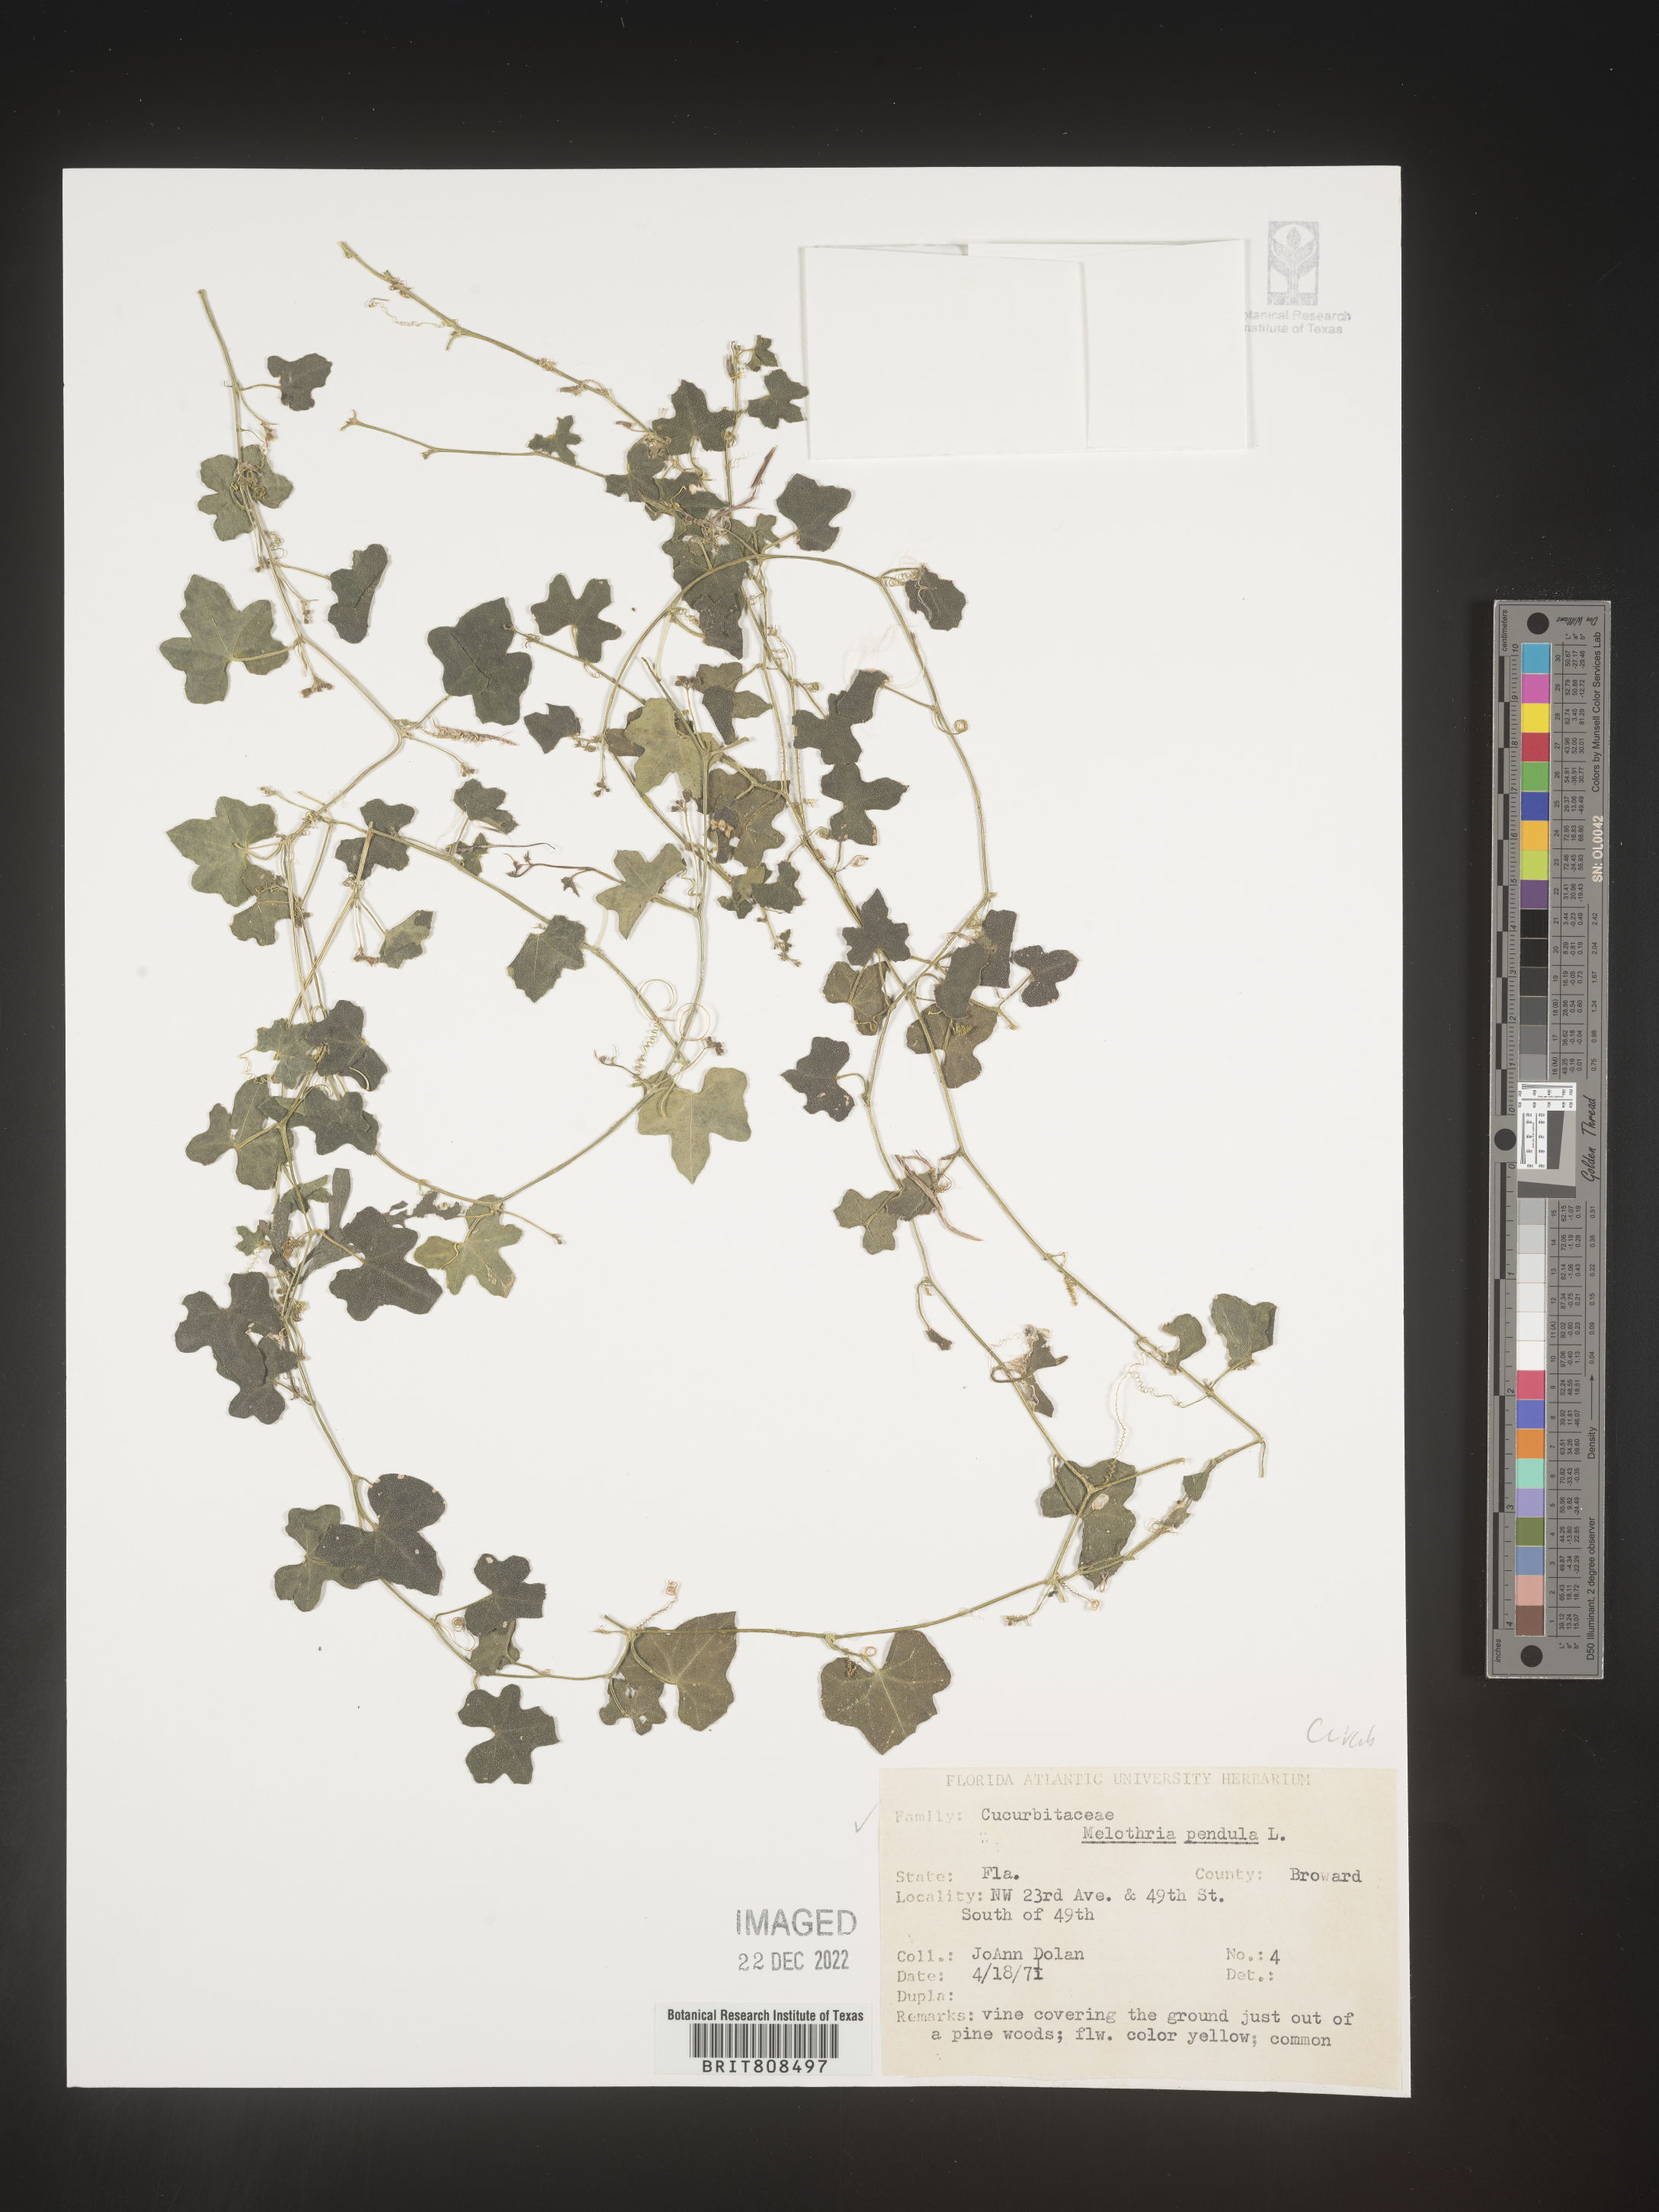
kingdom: Plantae
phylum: Tracheophyta
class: Magnoliopsida
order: Cucurbitales
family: Cucurbitaceae
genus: Melothria
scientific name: Melothria pendula
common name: Creeping-cucumber
